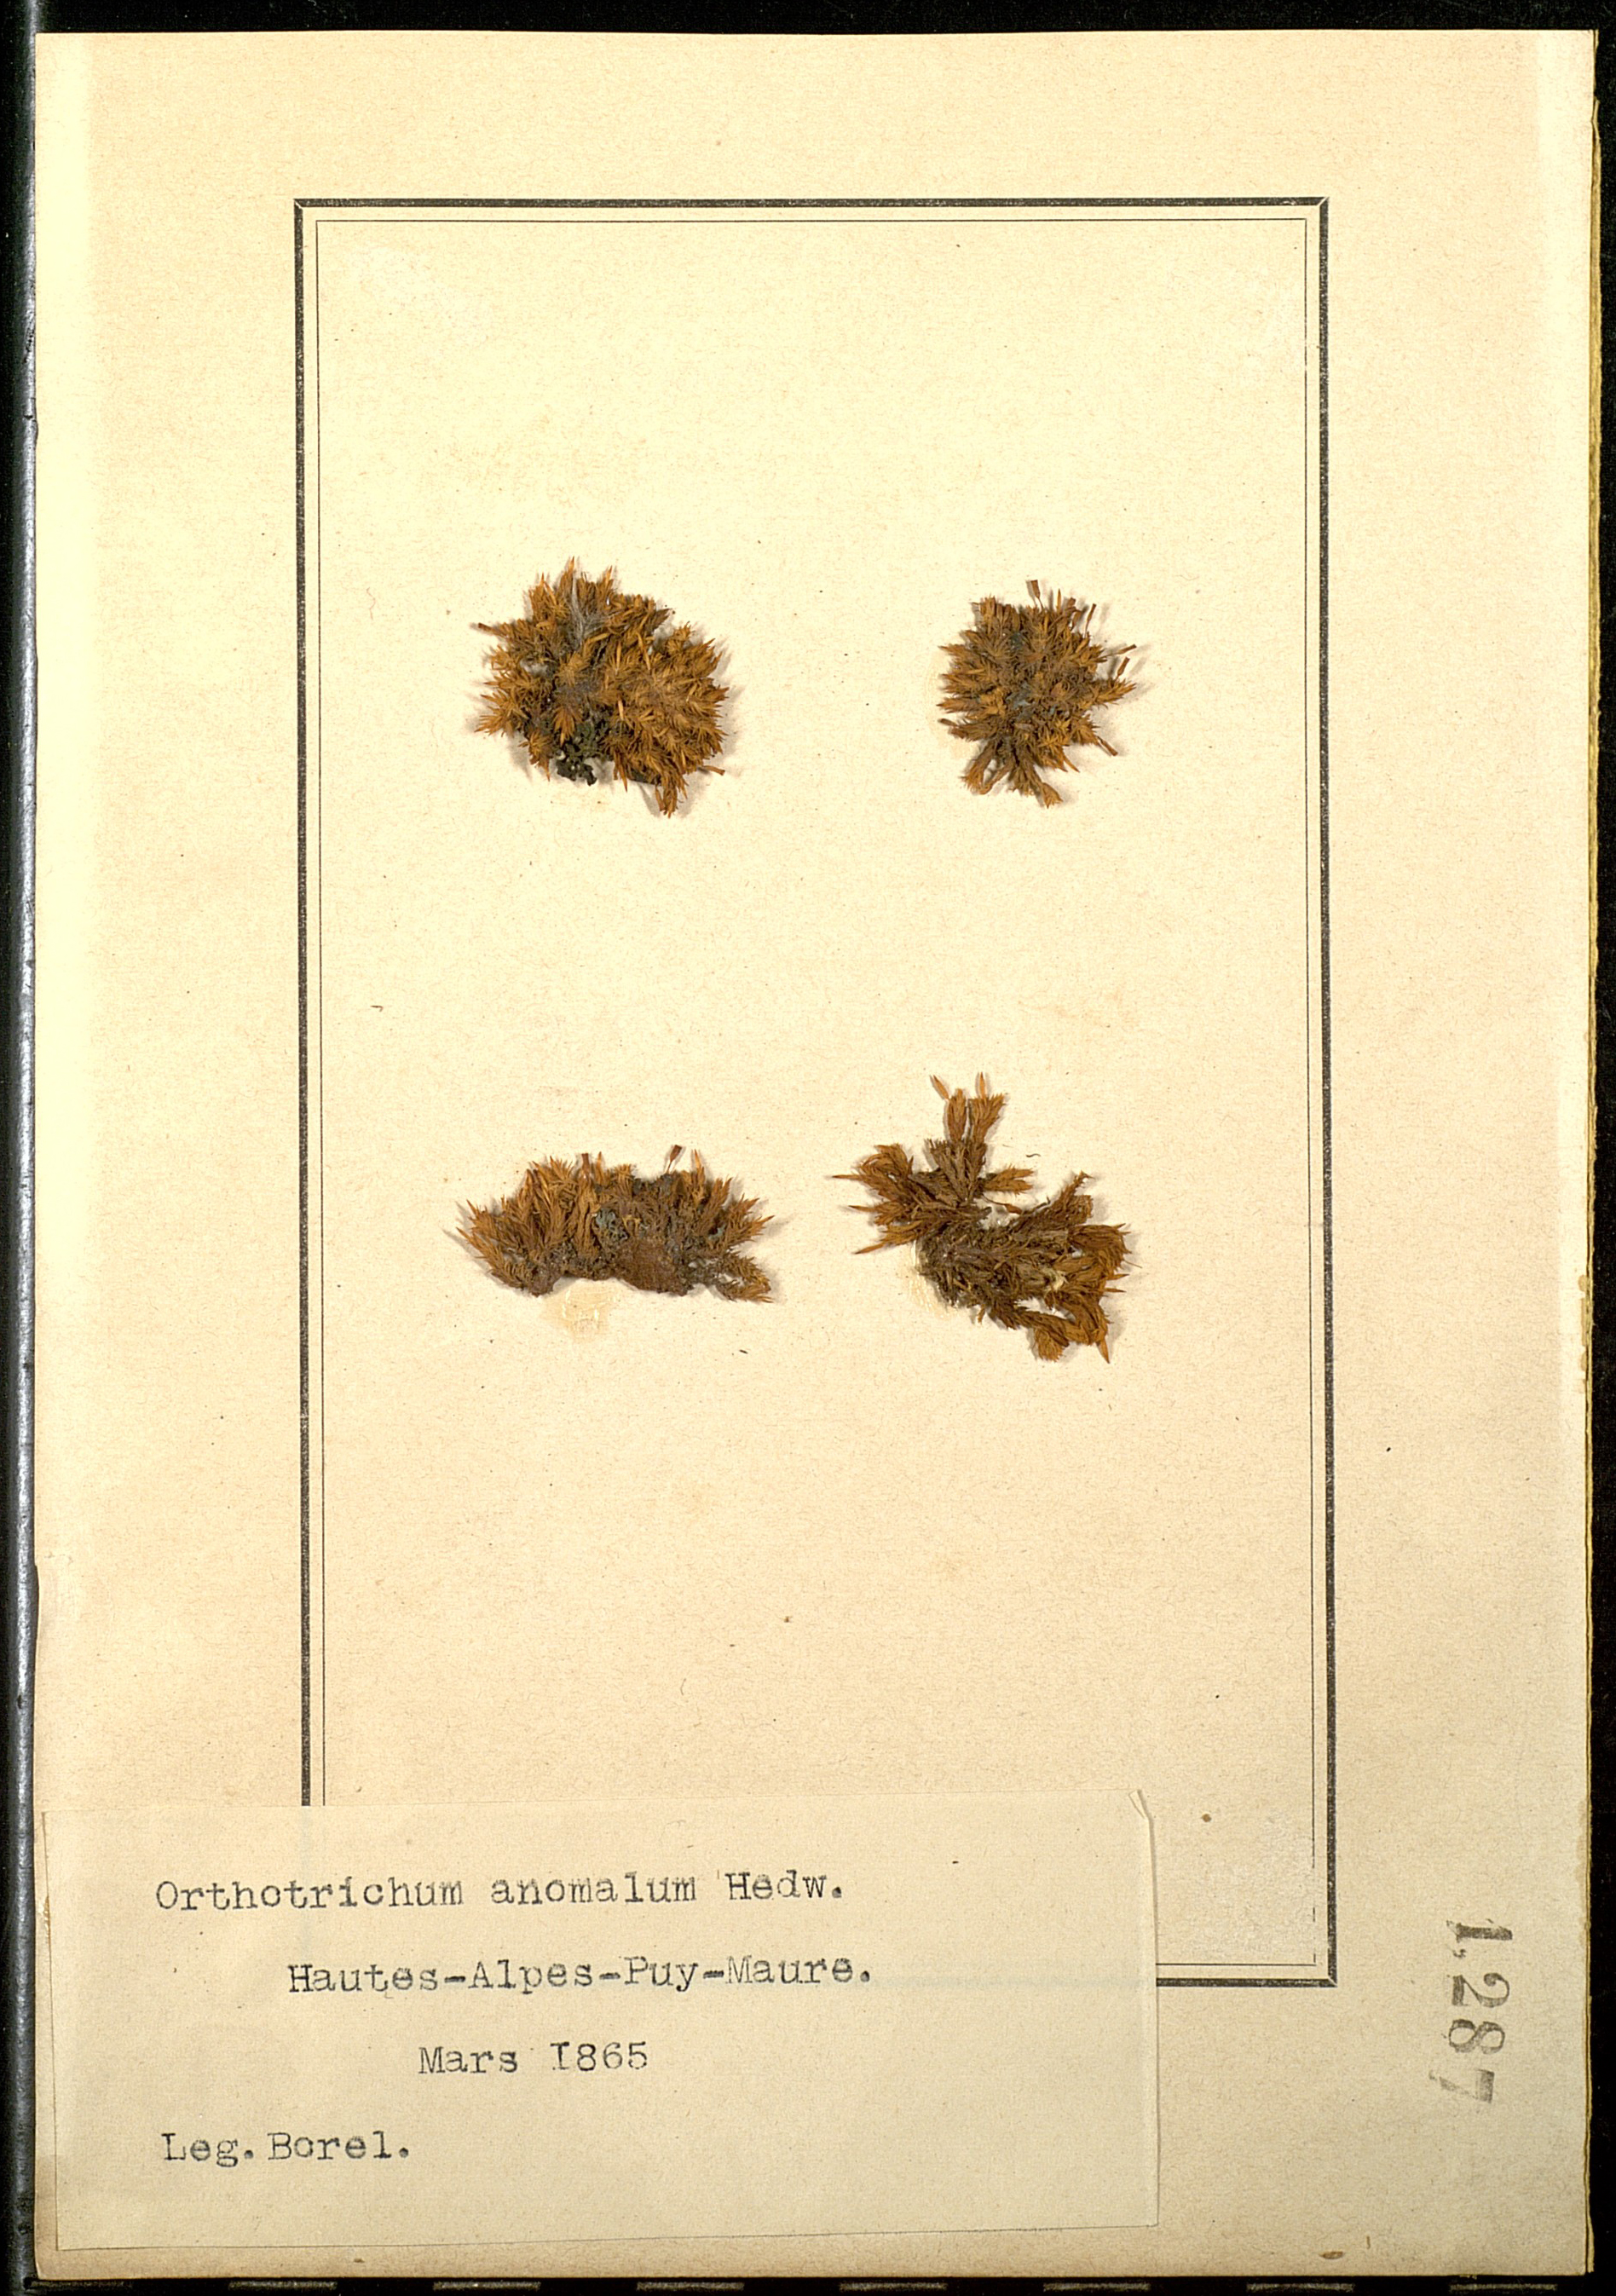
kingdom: Plantae
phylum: Bryophyta
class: Bryopsida
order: Orthotrichales
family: Orthotrichaceae
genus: Orthotrichum
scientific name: Orthotrichum anomalum
